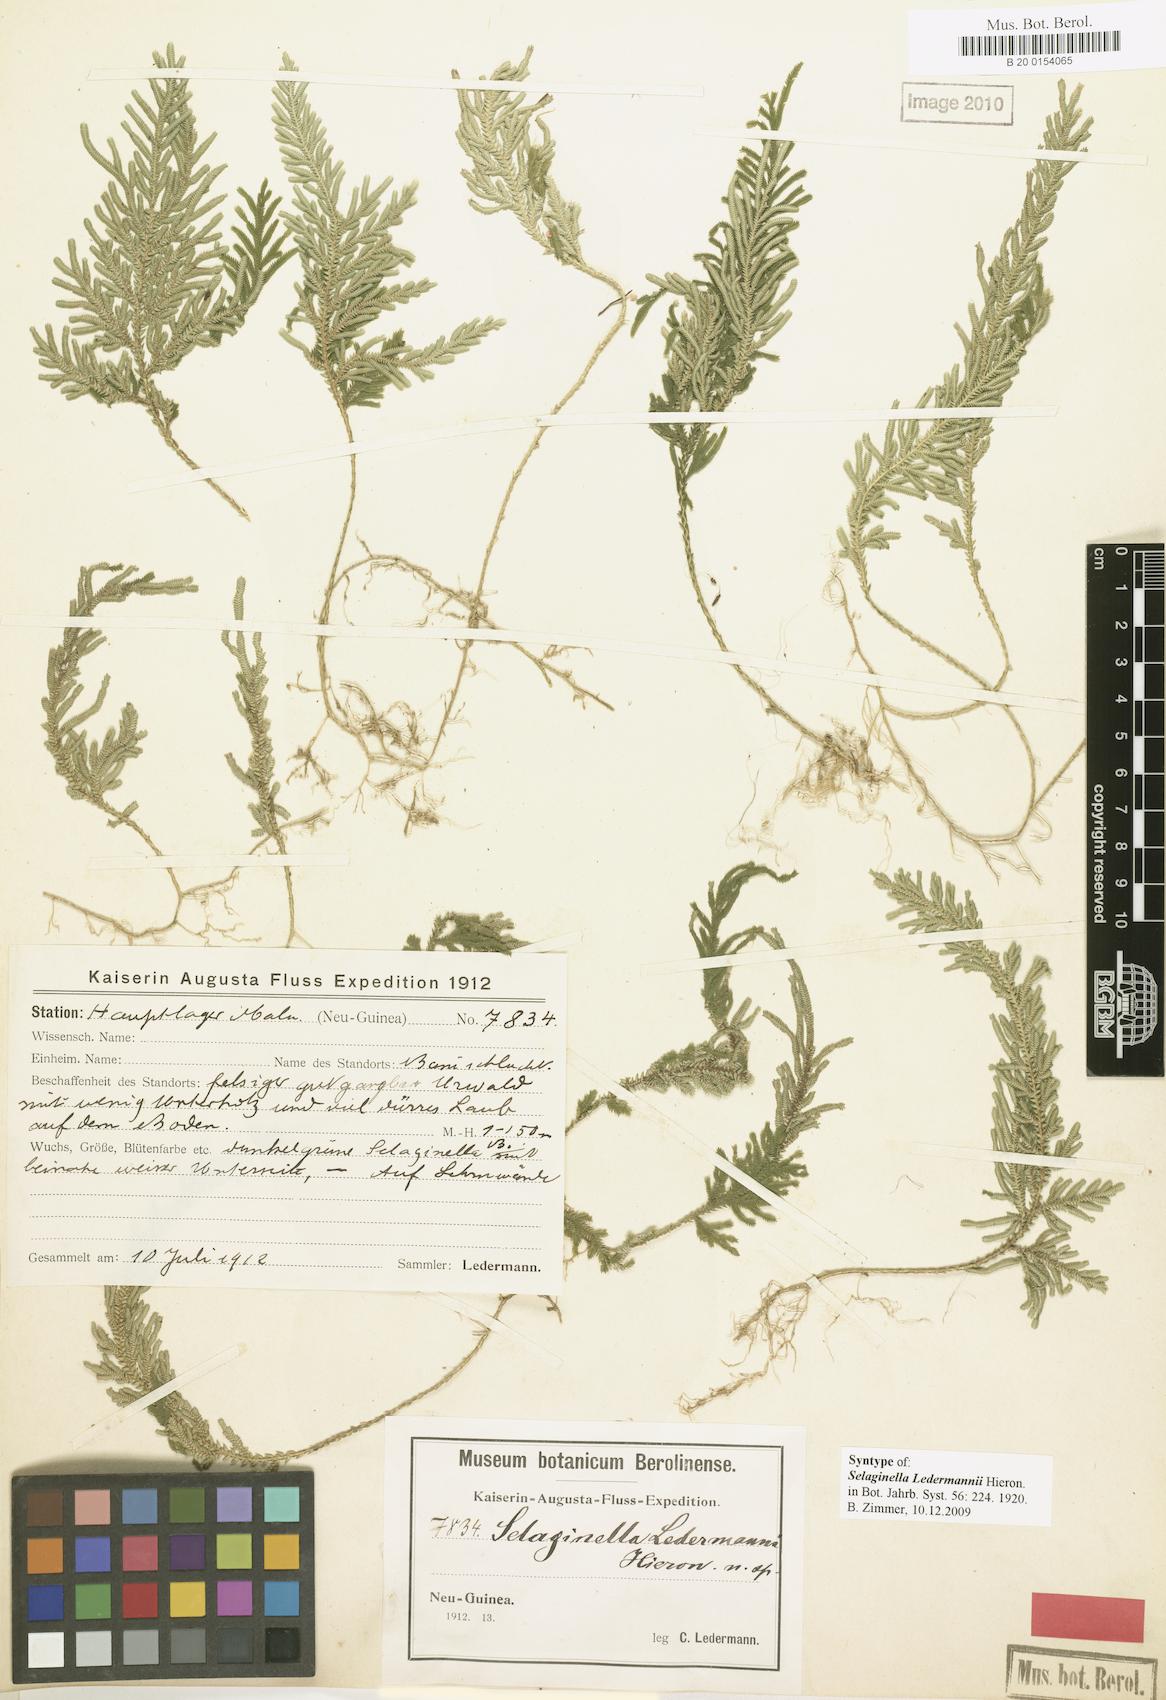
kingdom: Plantae
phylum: Tracheophyta
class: Lycopodiopsida
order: Selaginellales
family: Selaginellaceae
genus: Selaginella
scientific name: Selaginella ledermannii
